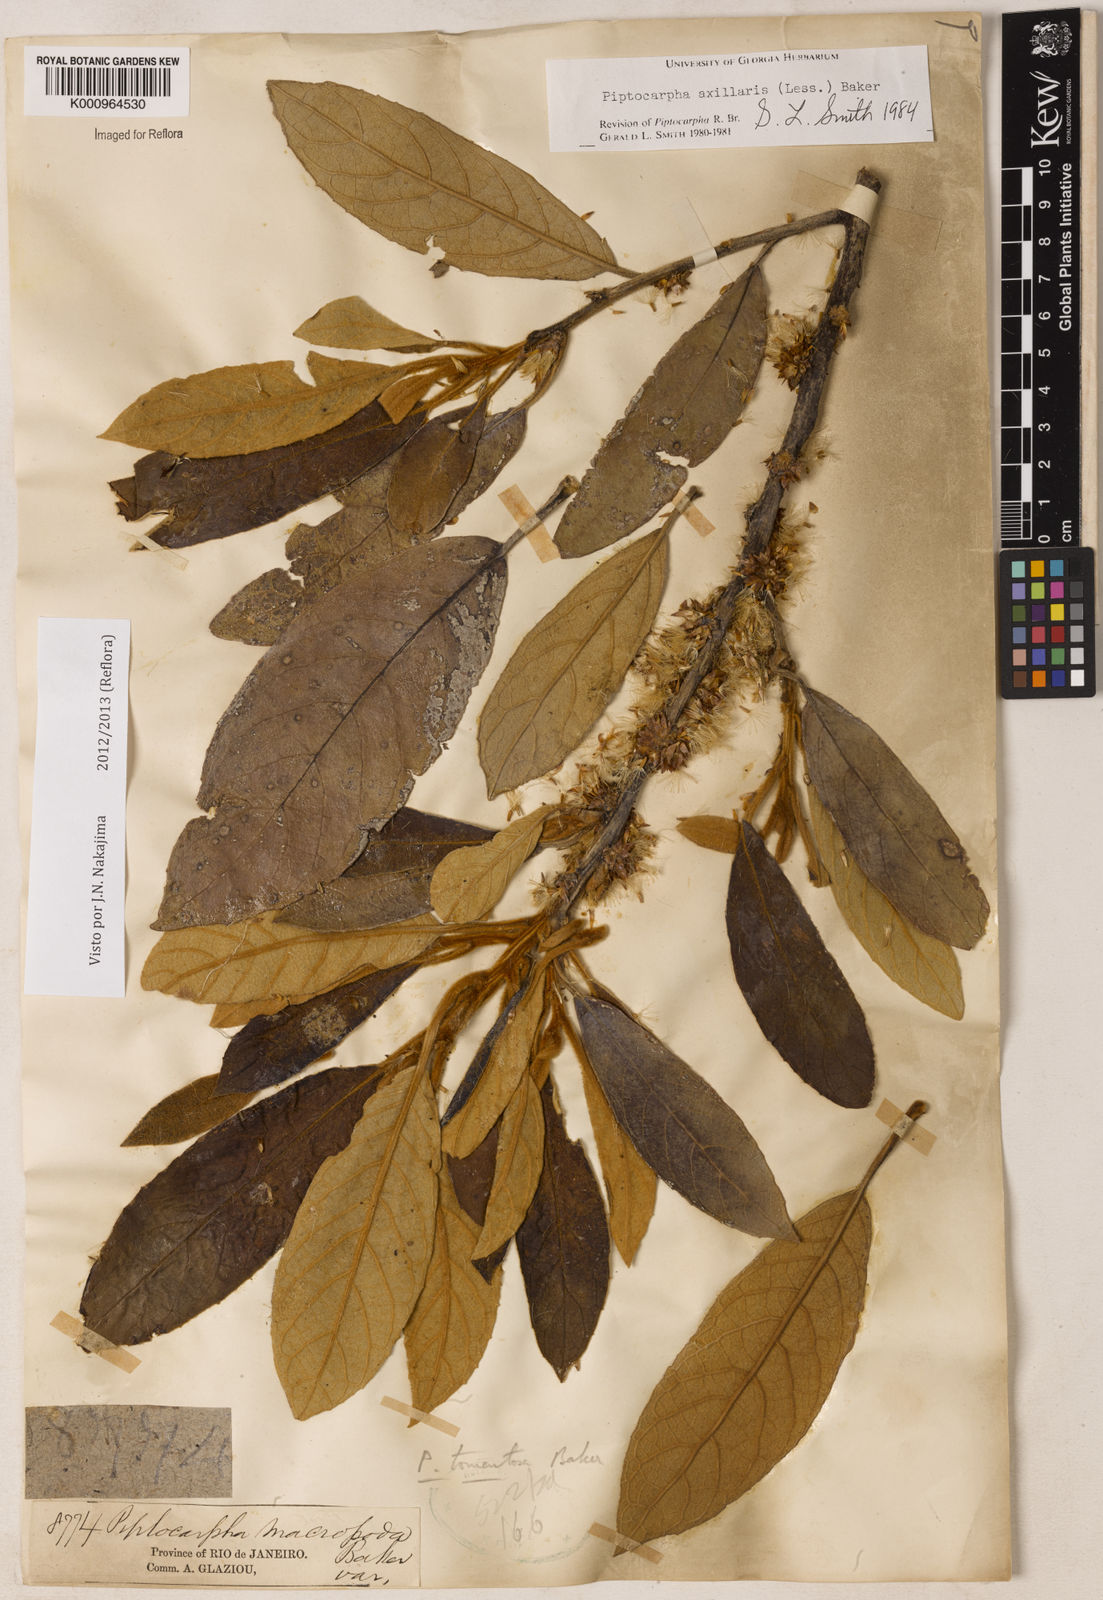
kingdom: Plantae
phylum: Tracheophyta
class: Magnoliopsida
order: Asterales
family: Asteraceae
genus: Piptocarpha
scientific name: Piptocarpha axillaris
